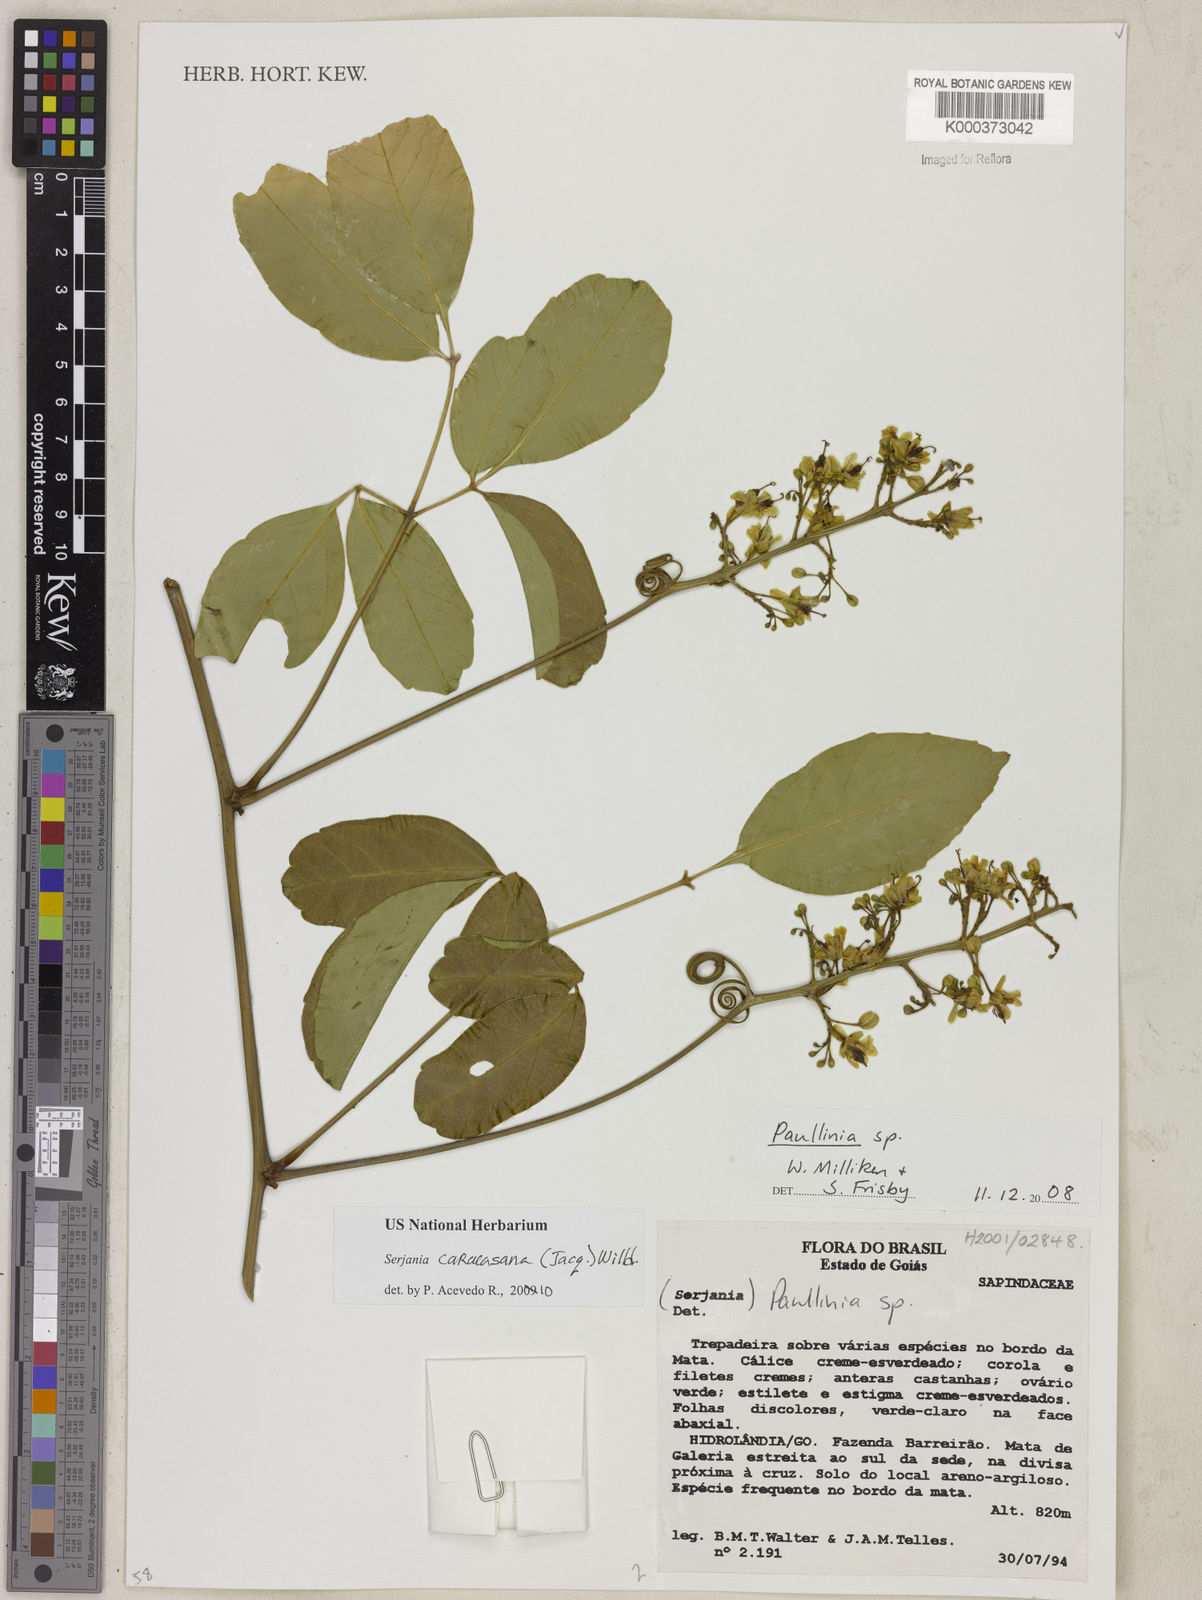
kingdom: Plantae
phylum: Tracheophyta
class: Magnoliopsida
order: Sapindales
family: Sapindaceae
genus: Paullinia
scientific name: Paullinia
